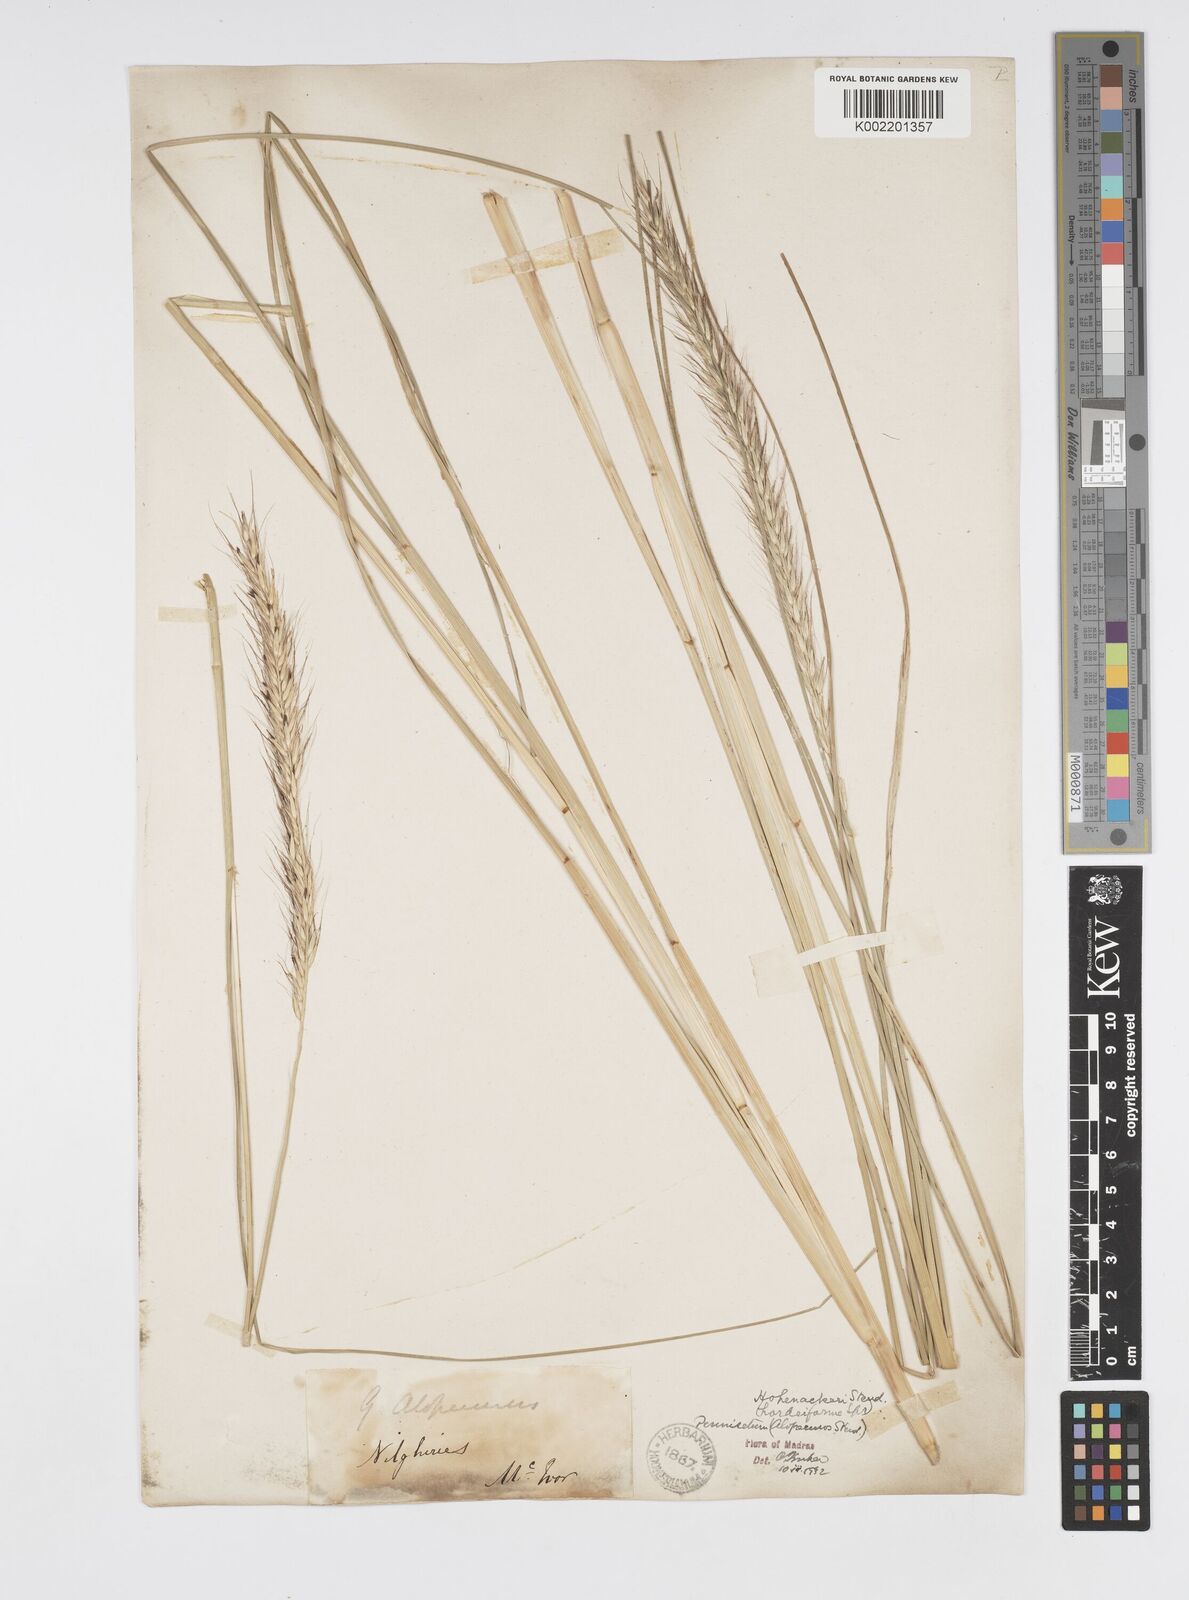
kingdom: Plantae
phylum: Tracheophyta
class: Liliopsida
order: Poales
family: Poaceae
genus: Cenchrus
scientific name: Cenchrus hohenackeri
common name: Moya grass
